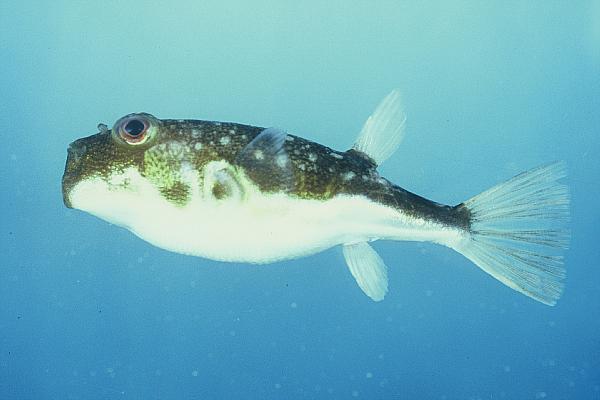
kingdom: Animalia
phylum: Chordata
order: Tetraodontiformes
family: Tetraodontidae
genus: Amblyrhynchotes
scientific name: Amblyrhynchotes honckenii
